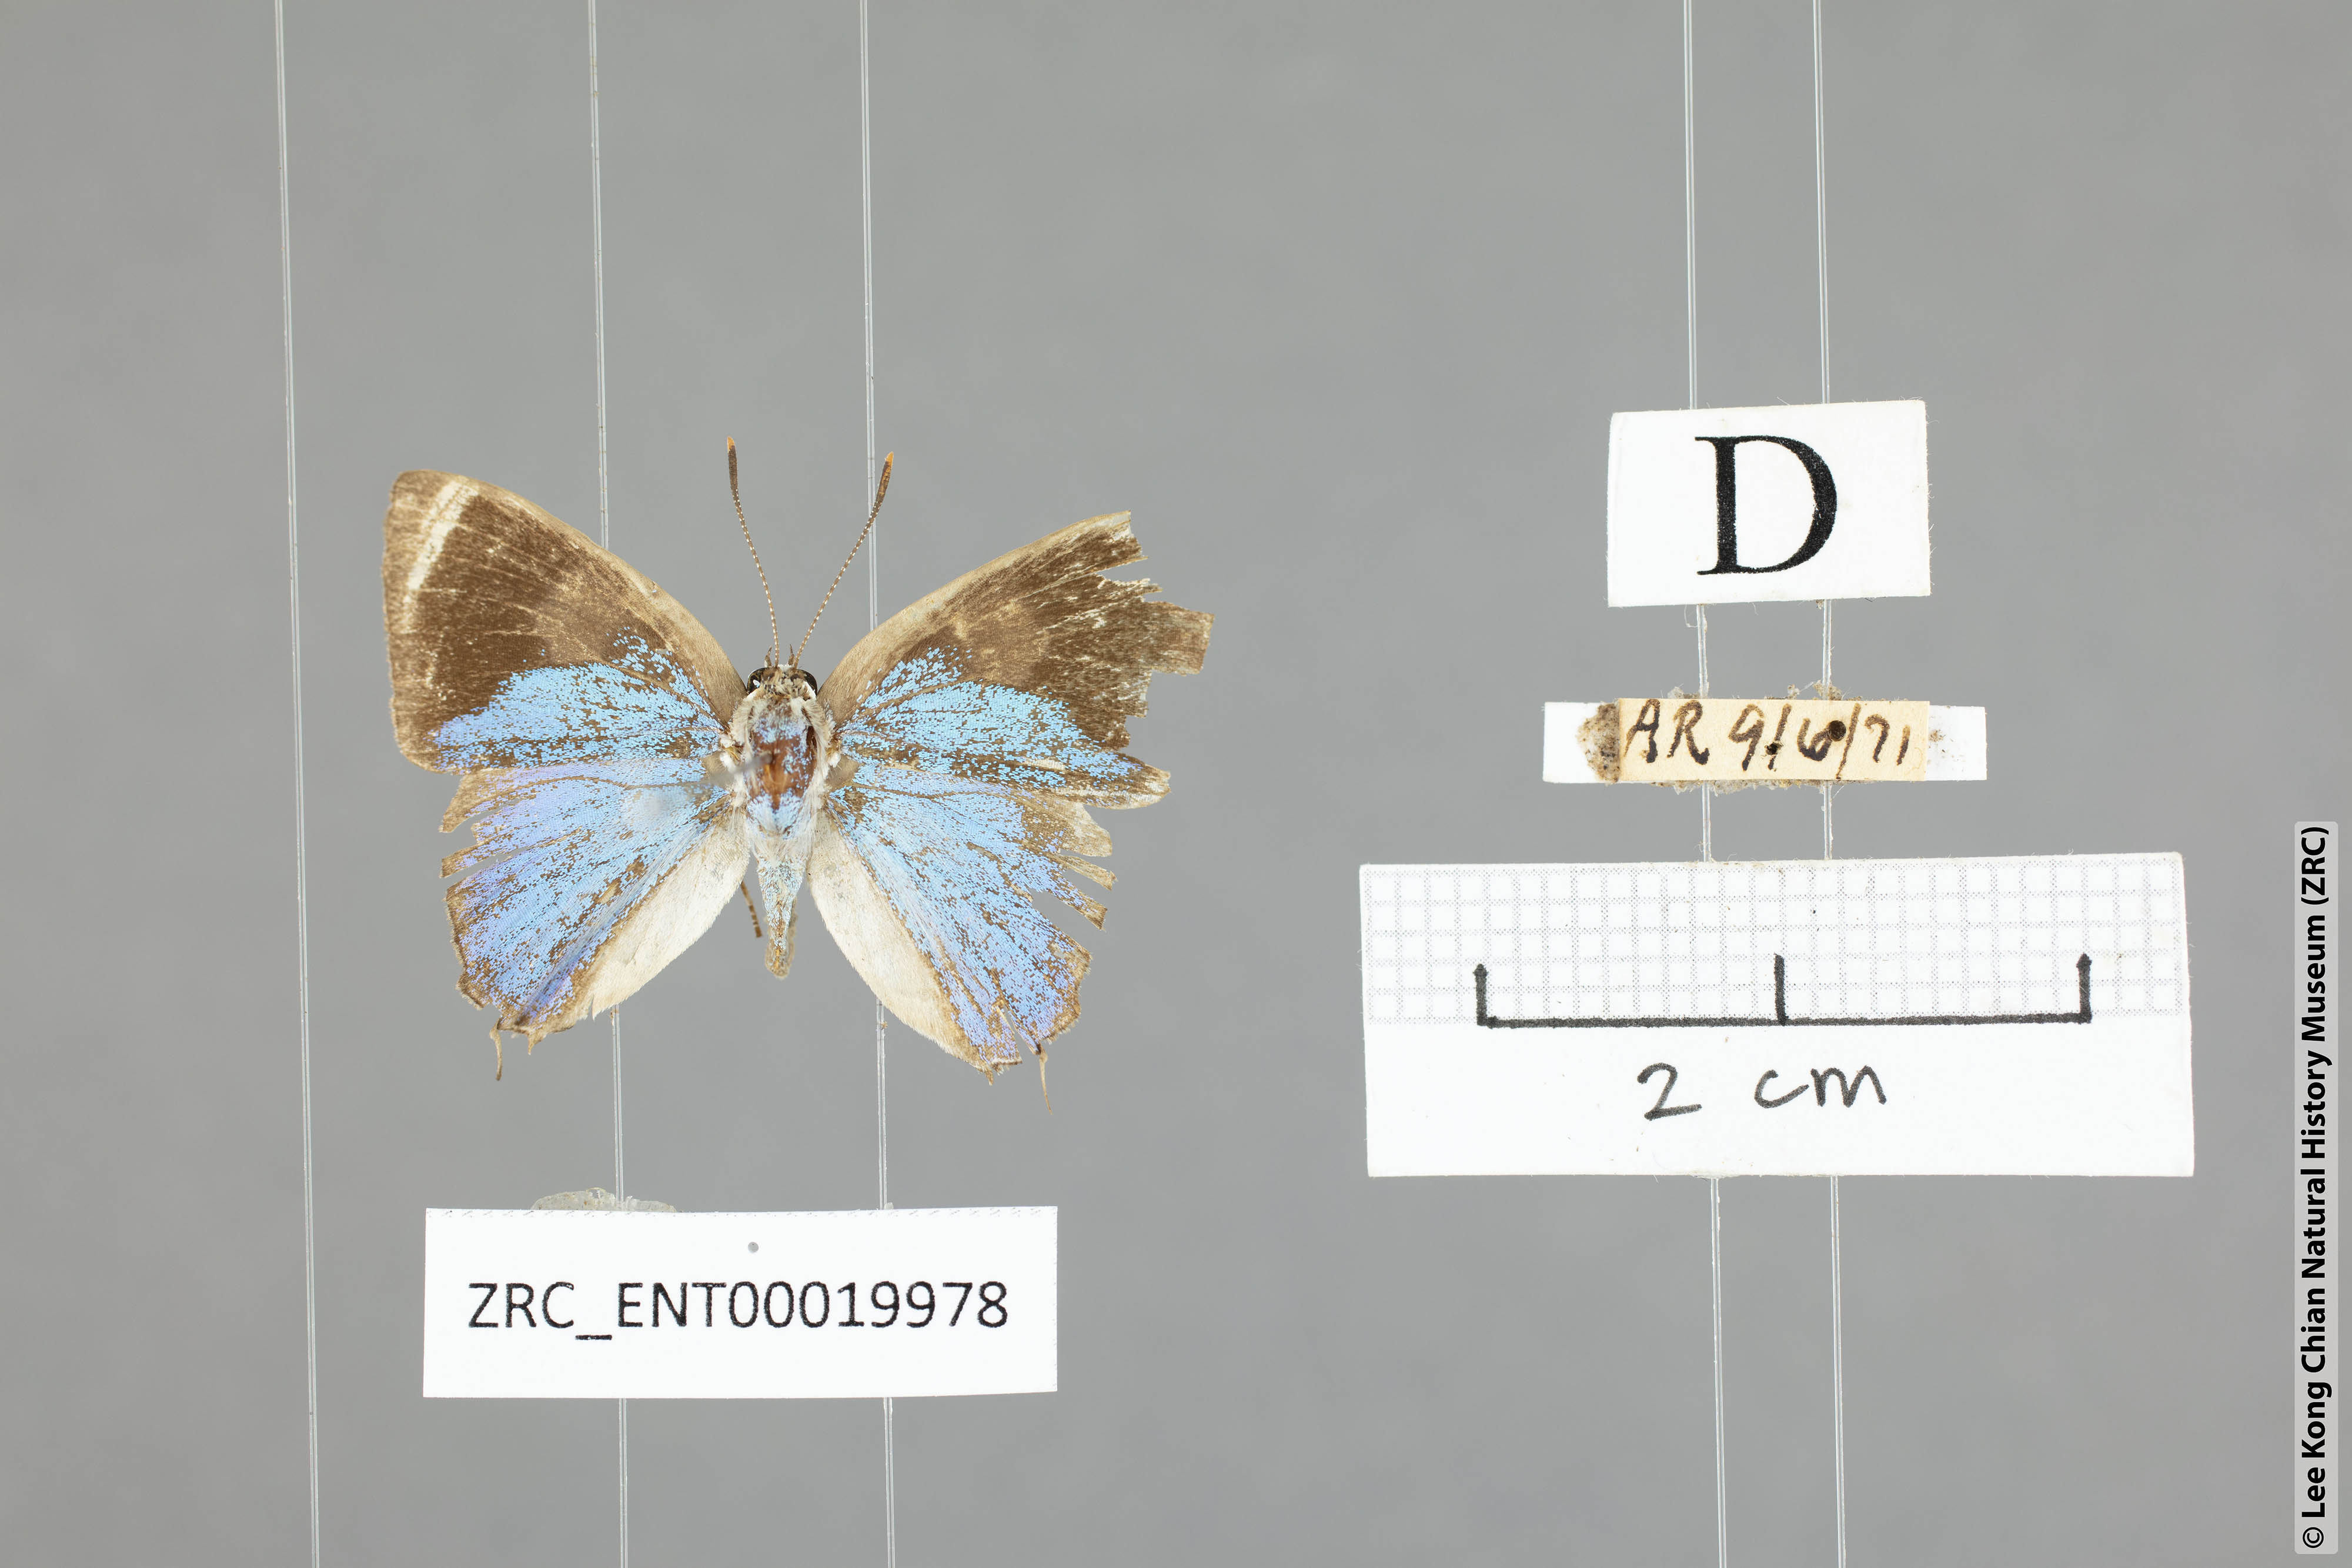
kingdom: Animalia
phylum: Arthropoda
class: Insecta
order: Lepidoptera
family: Lycaenidae
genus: Bullis
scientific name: Bullis buto
